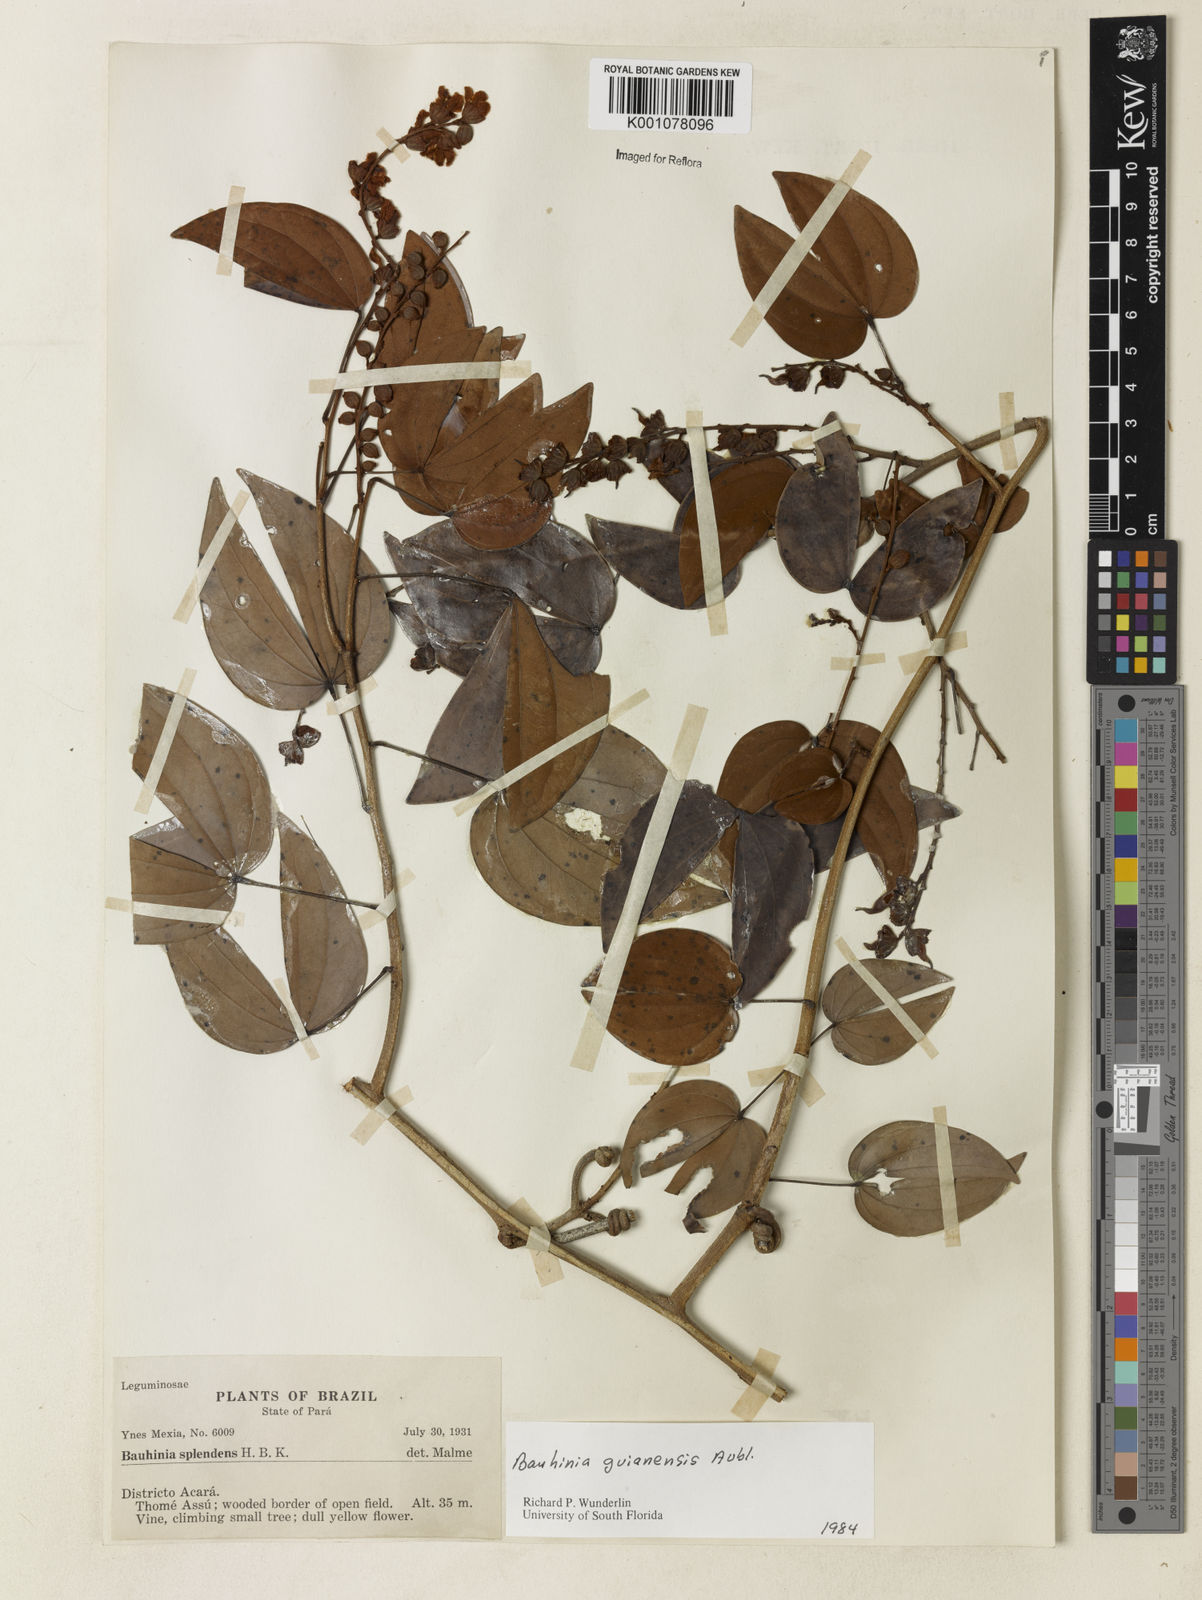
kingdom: Plantae
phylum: Tracheophyta
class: Magnoliopsida
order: Fabales
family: Fabaceae
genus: Schnella
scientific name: Schnella guianensis
